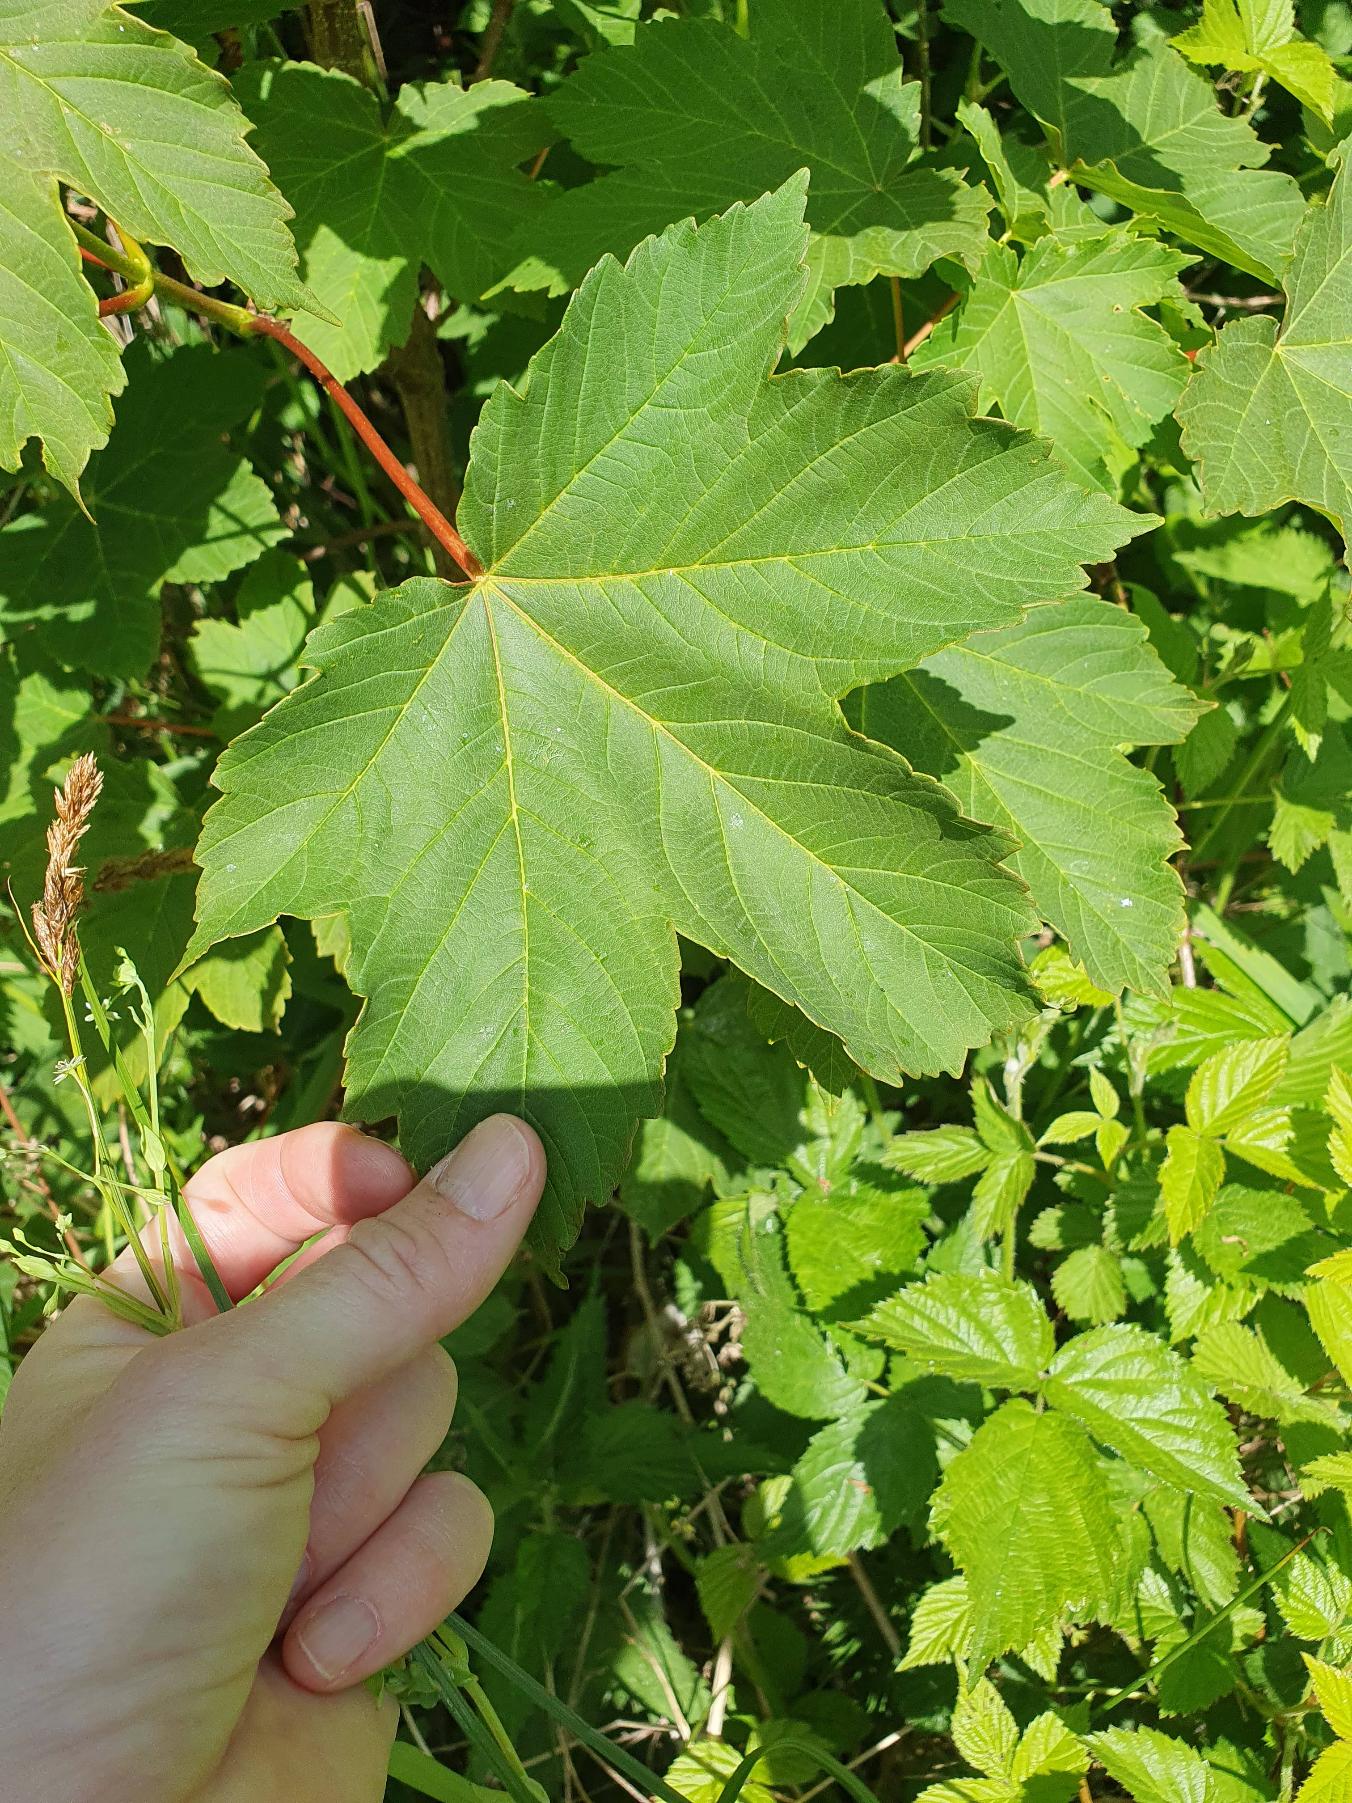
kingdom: Plantae
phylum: Tracheophyta
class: Magnoliopsida
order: Sapindales
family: Sapindaceae
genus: Acer
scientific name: Acer pseudoplatanus
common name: Ahorn
